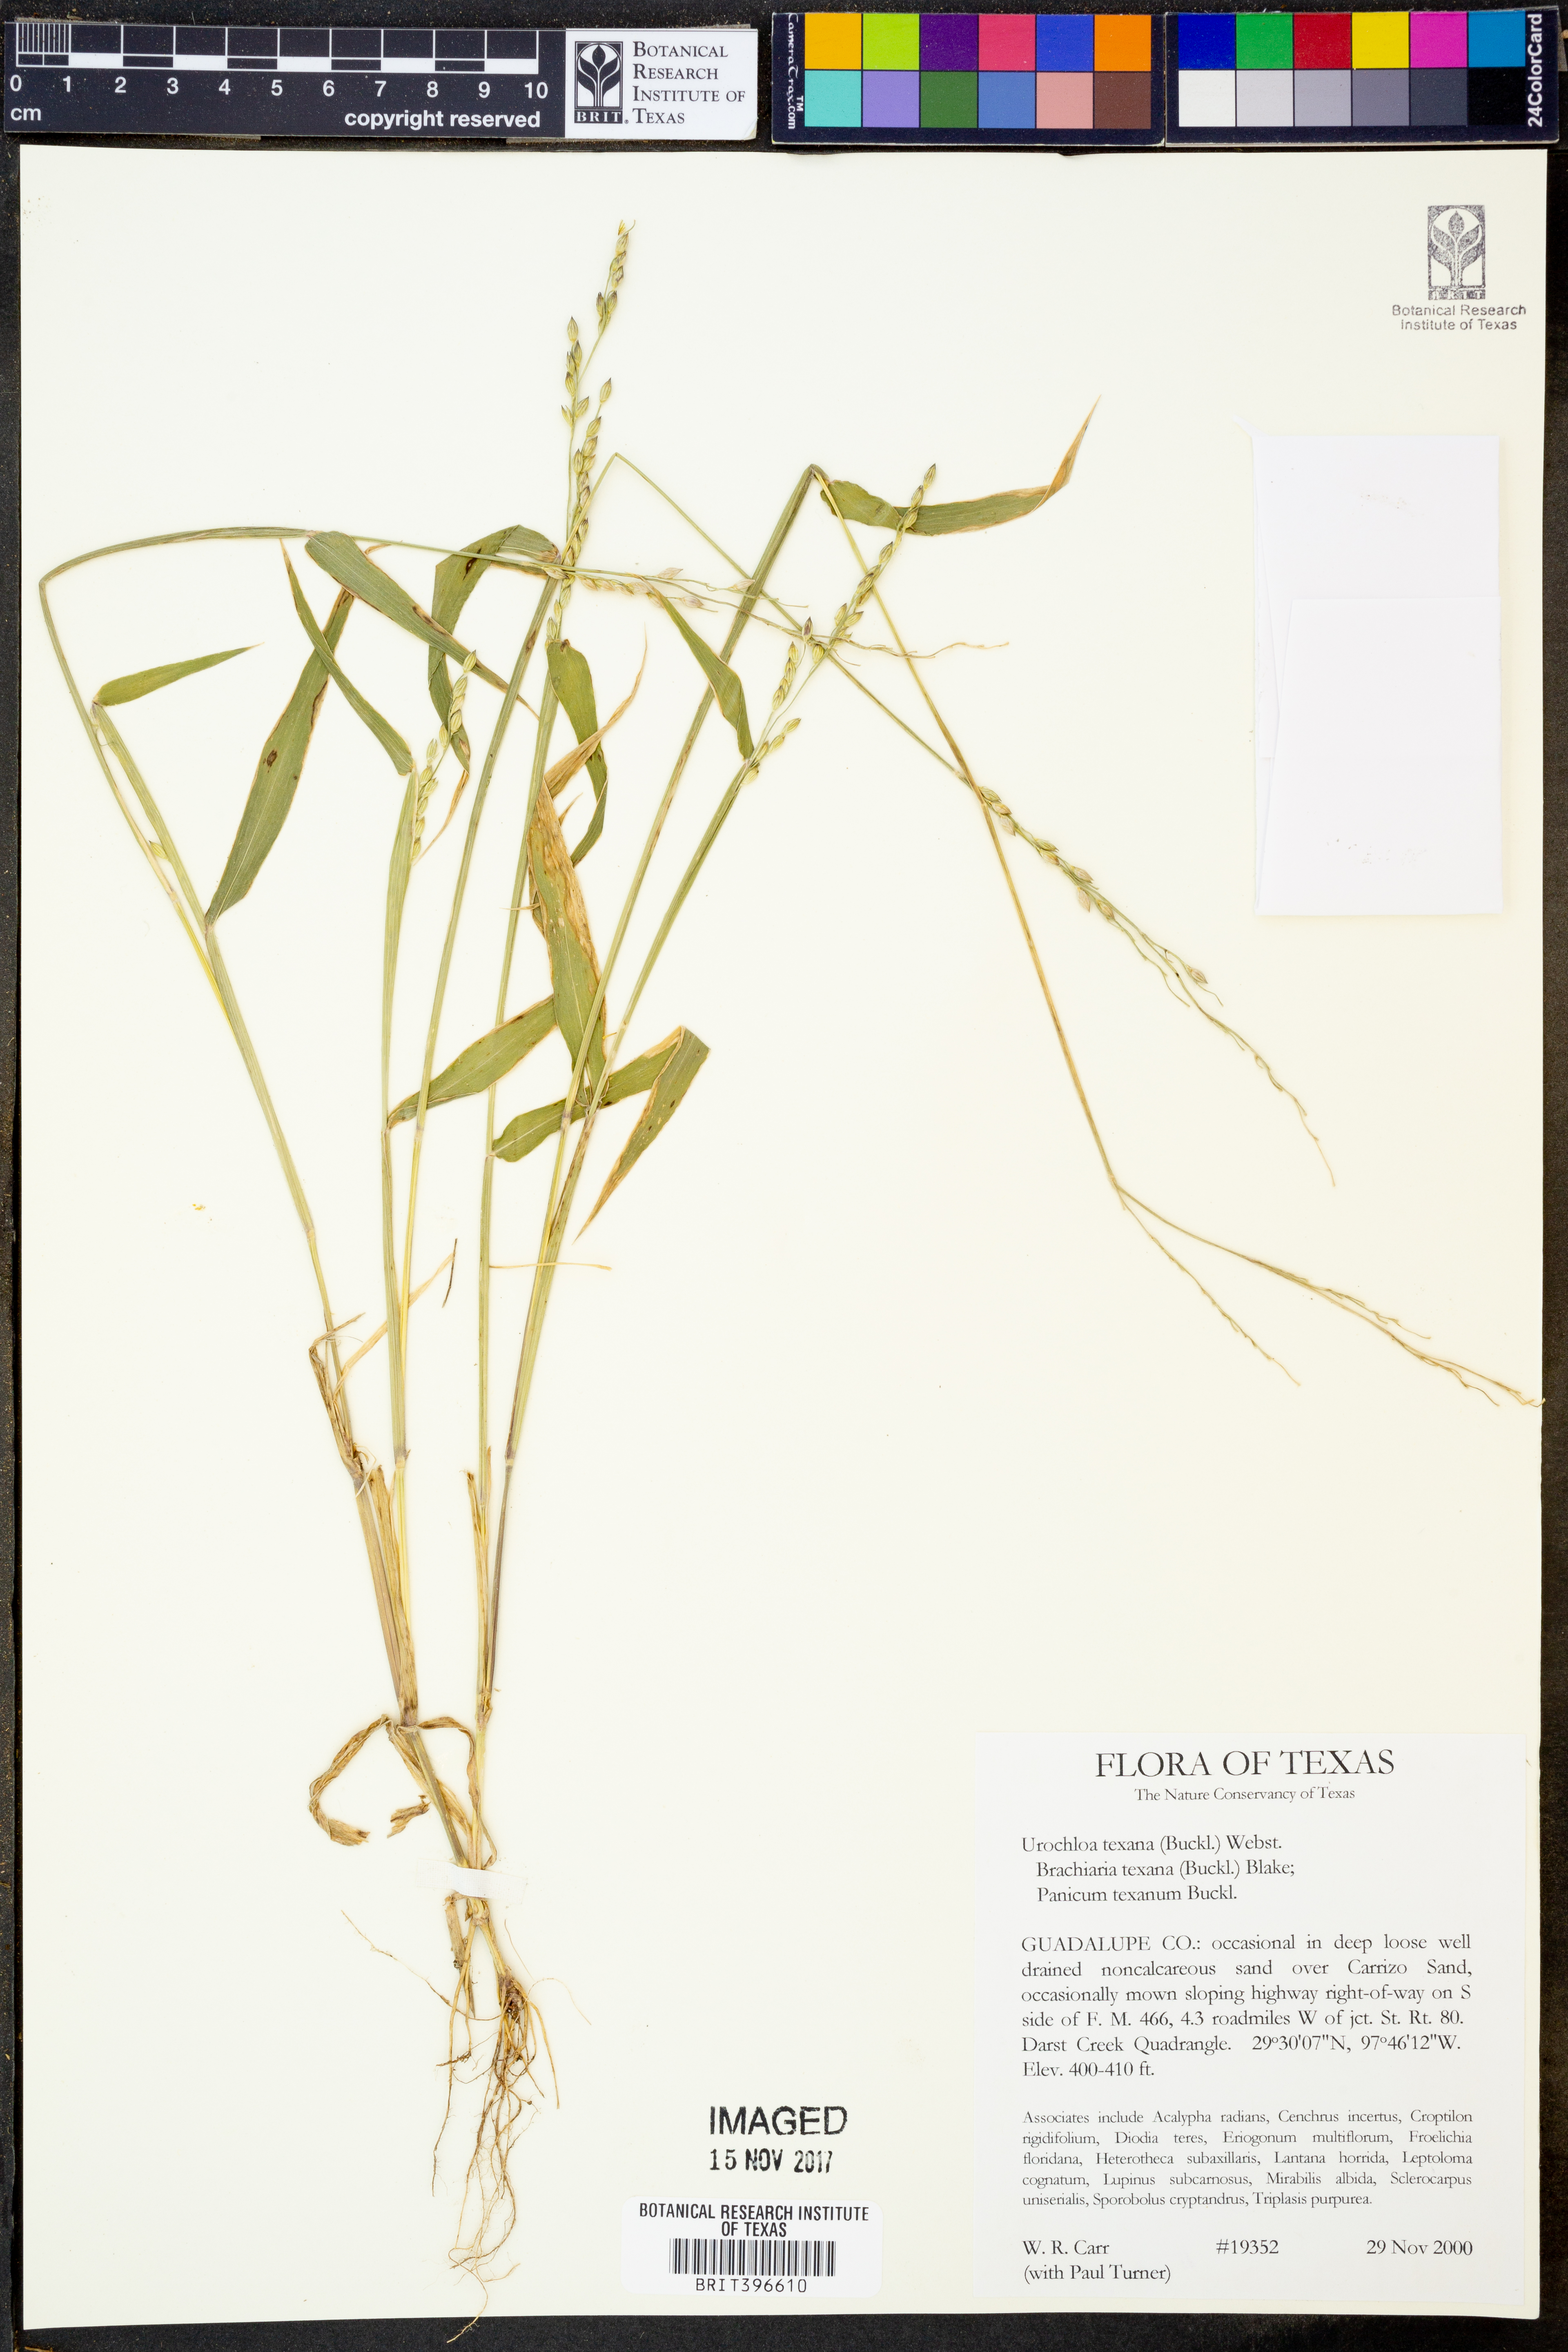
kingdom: Plantae
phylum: Tracheophyta
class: Liliopsida
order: Poales
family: Poaceae
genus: Urochloa
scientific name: Urochloa texana
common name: Texas millet
